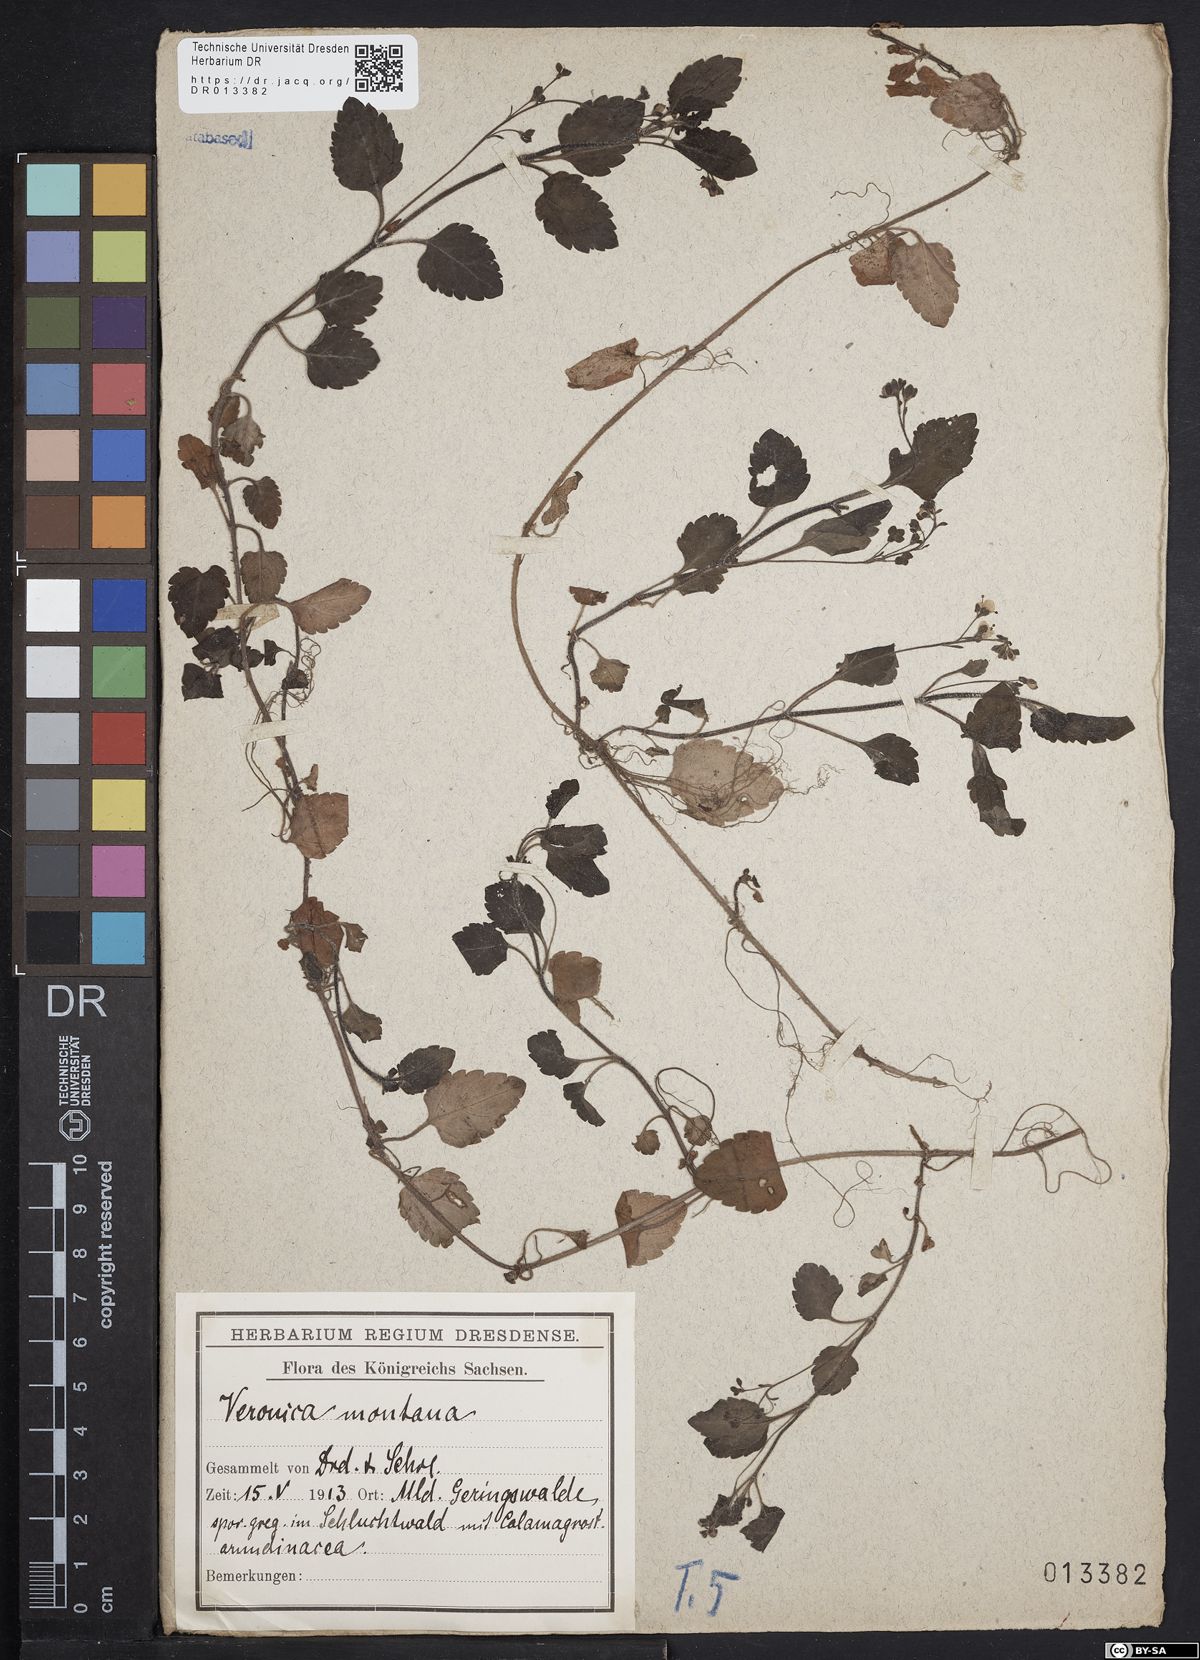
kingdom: Plantae
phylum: Tracheophyta
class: Magnoliopsida
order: Lamiales
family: Plantaginaceae
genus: Veronica
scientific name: Veronica montana
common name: Wood speedwell
